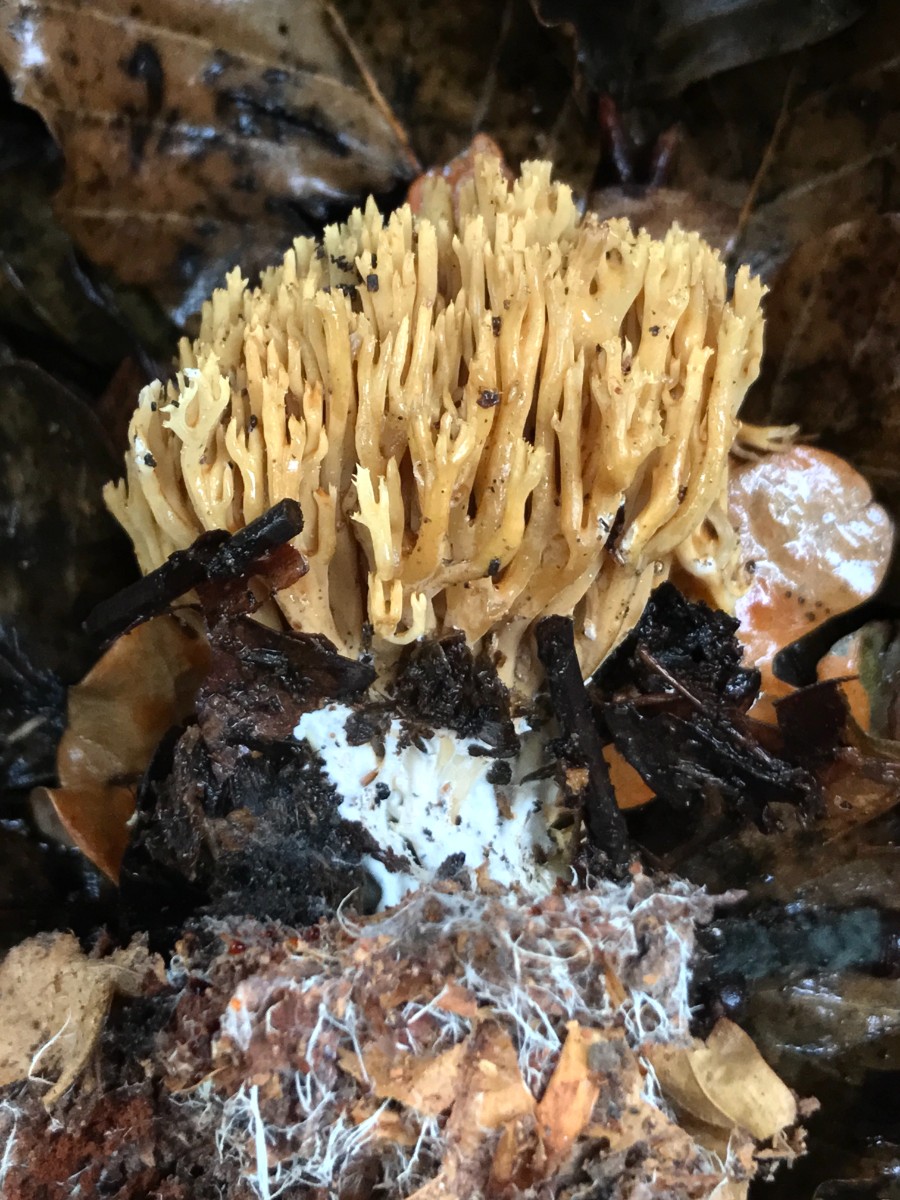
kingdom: Fungi
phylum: Basidiomycota
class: Agaricomycetes
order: Gomphales
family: Gomphaceae
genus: Ramaria
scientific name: Ramaria stricta
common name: rank koralsvamp
